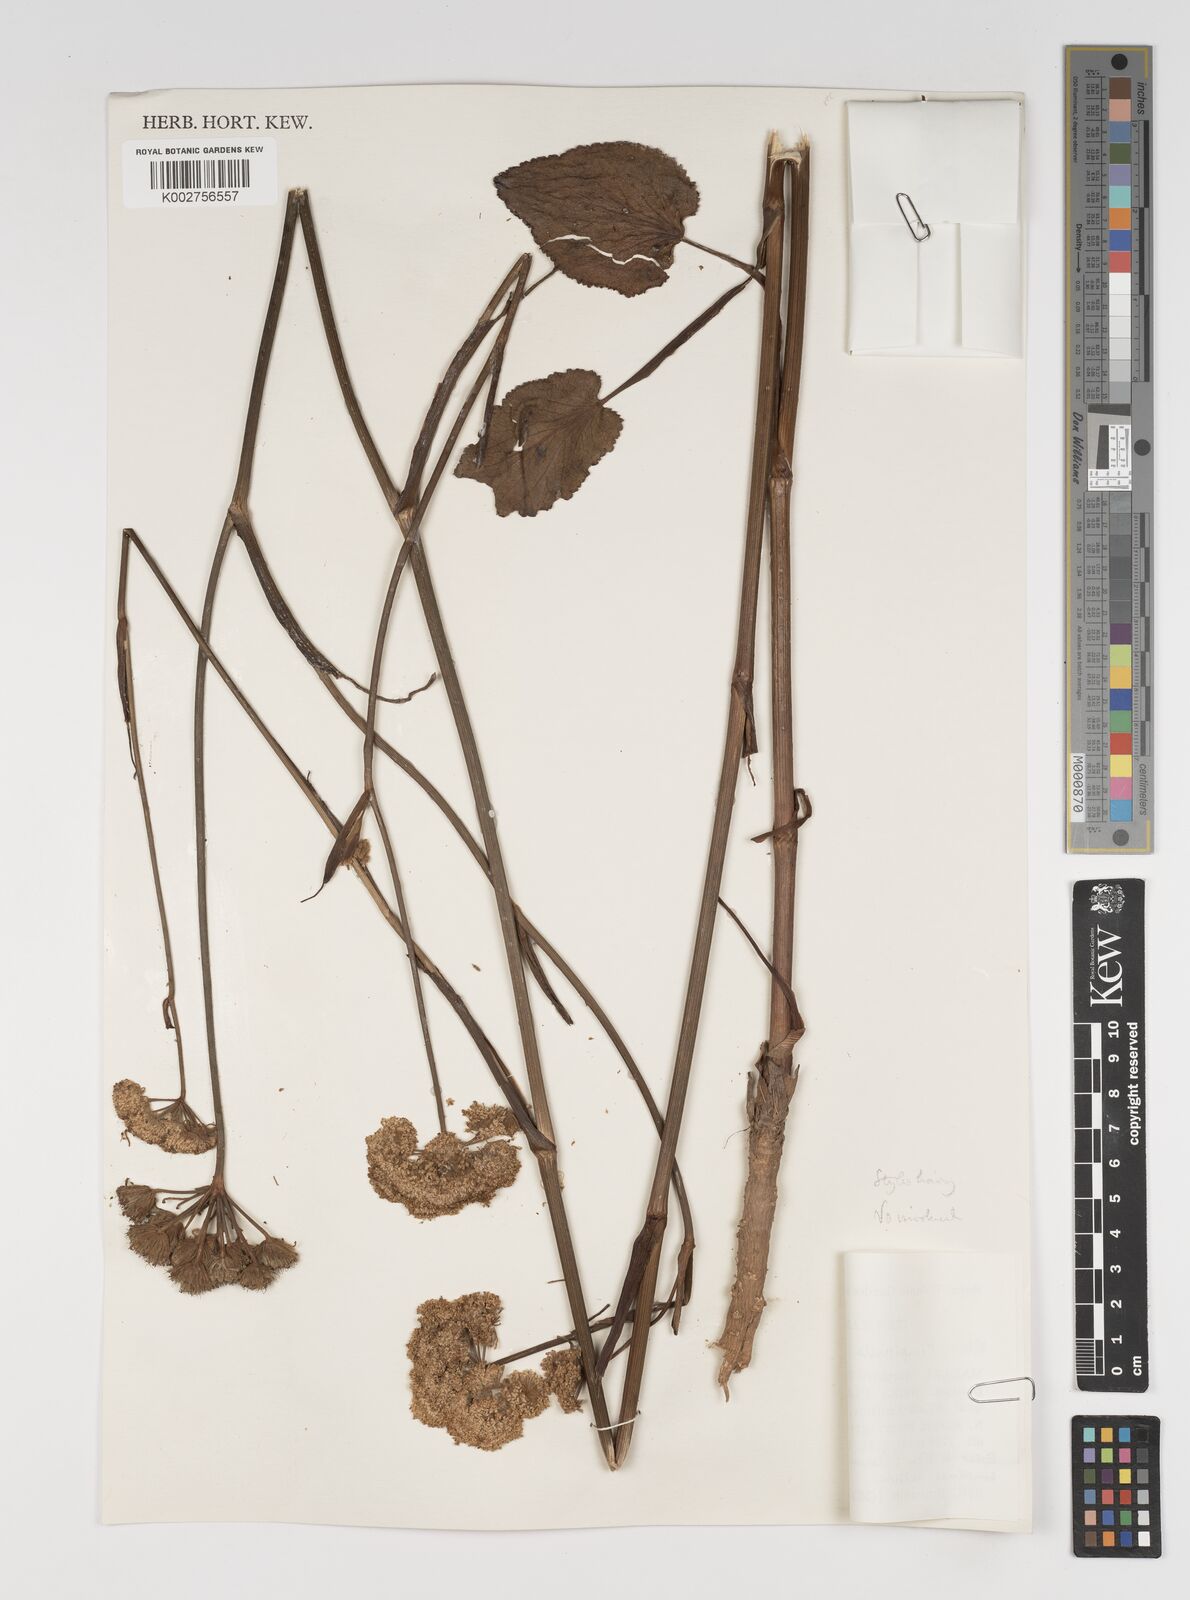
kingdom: Plantae
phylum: Tracheophyta
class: Magnoliopsida
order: Apiales
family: Apiaceae
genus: Pimpinella
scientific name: Pimpinella kingdon-wardii
